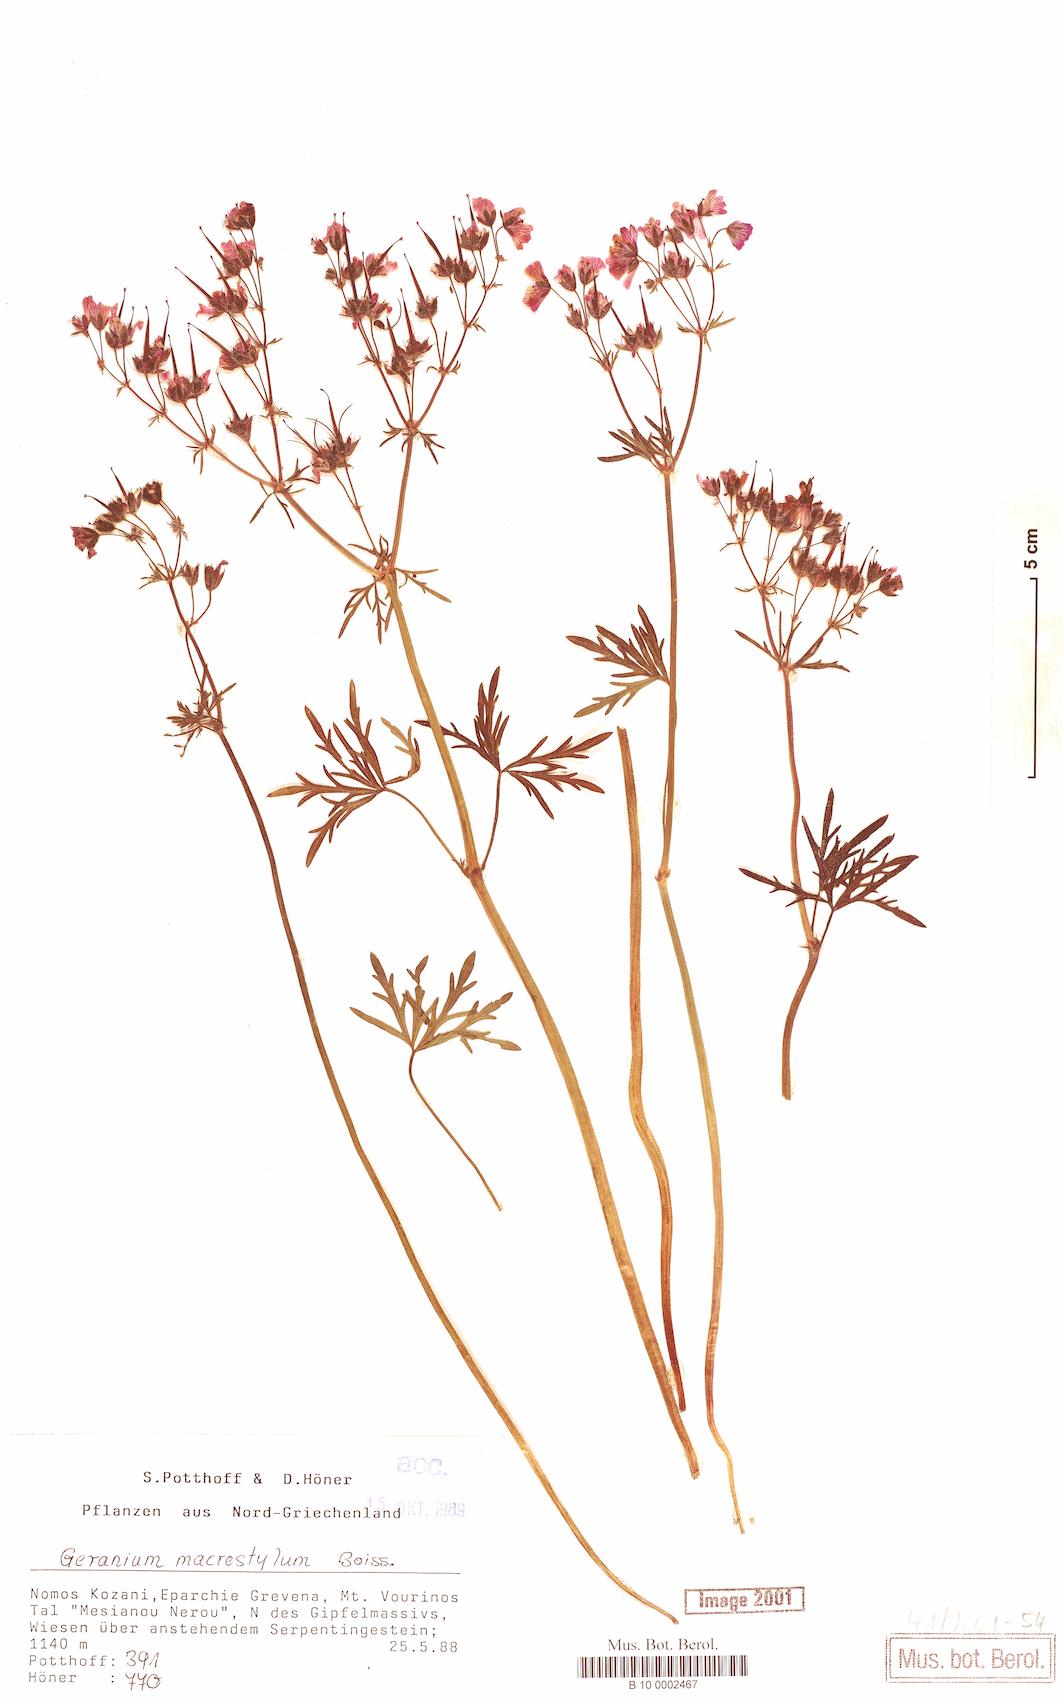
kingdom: Plantae
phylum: Tracheophyta
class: Magnoliopsida
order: Geraniales
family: Geraniaceae
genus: Geranium
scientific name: Geranium macrostylum
